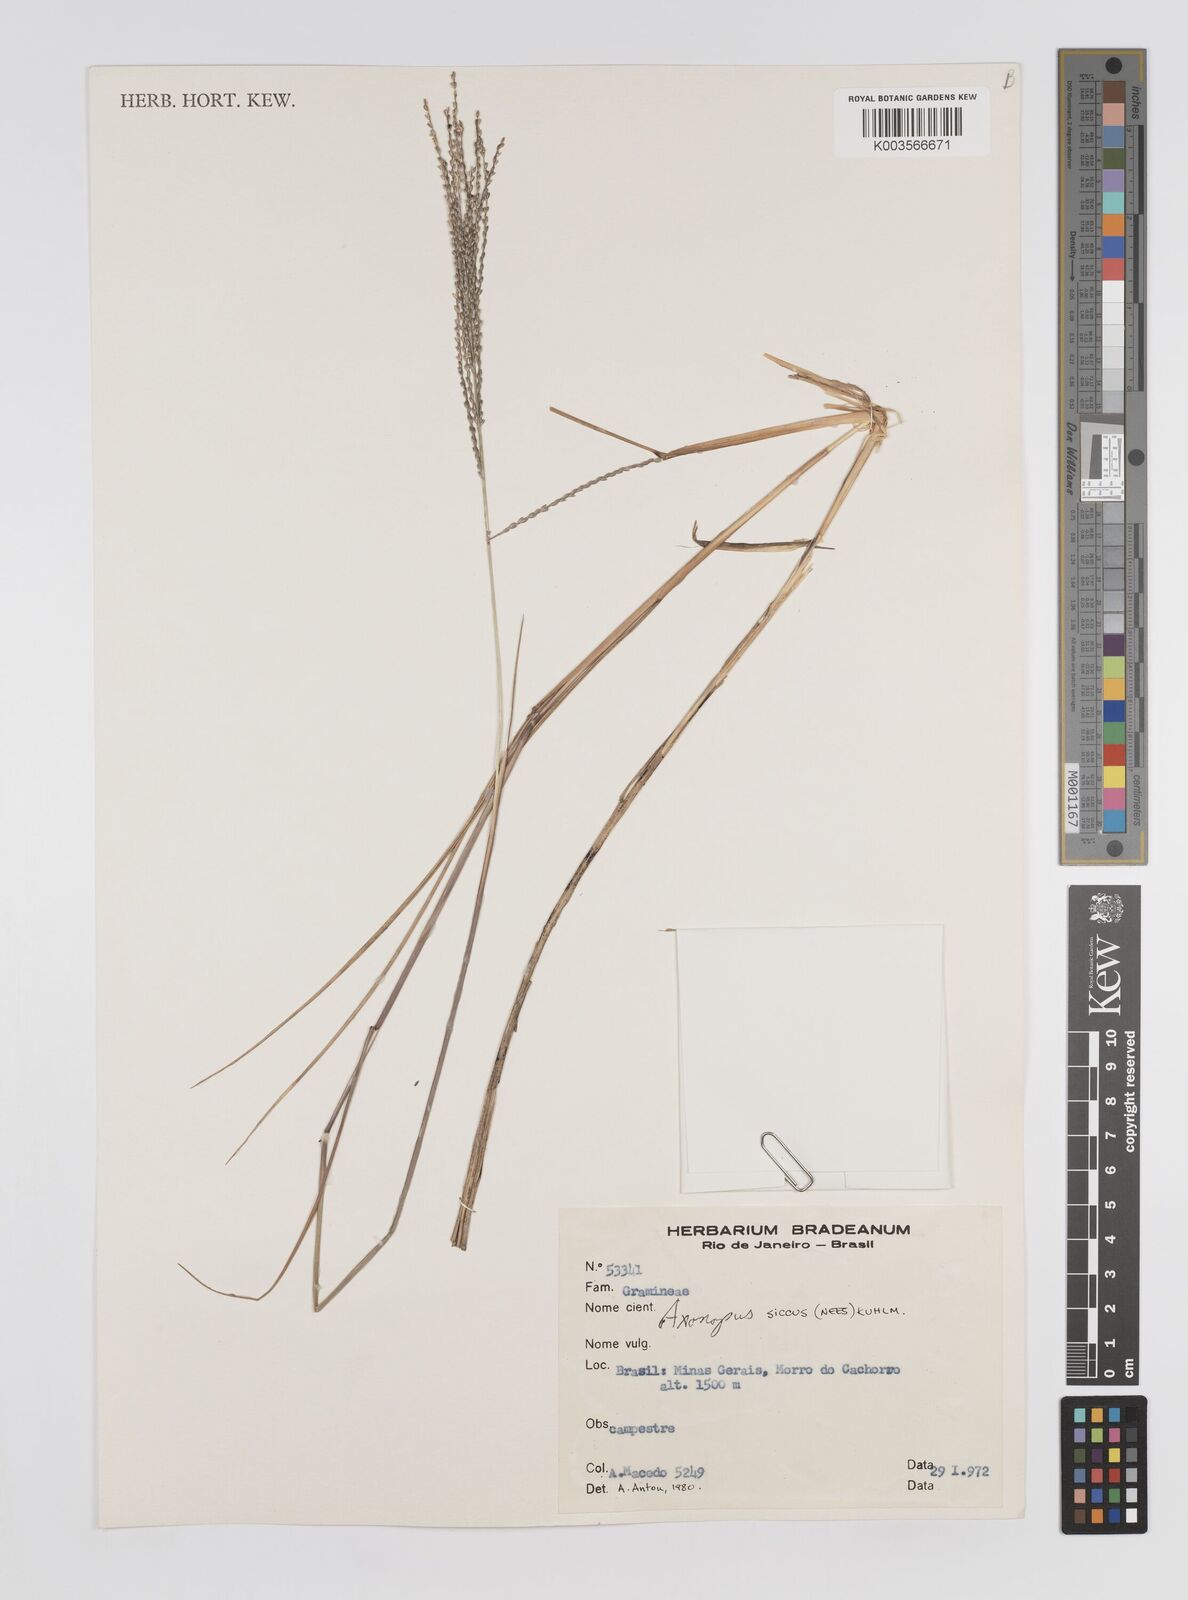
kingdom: Plantae
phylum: Tracheophyta
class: Liliopsida
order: Poales
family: Poaceae
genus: Axonopus
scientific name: Axonopus siccus
